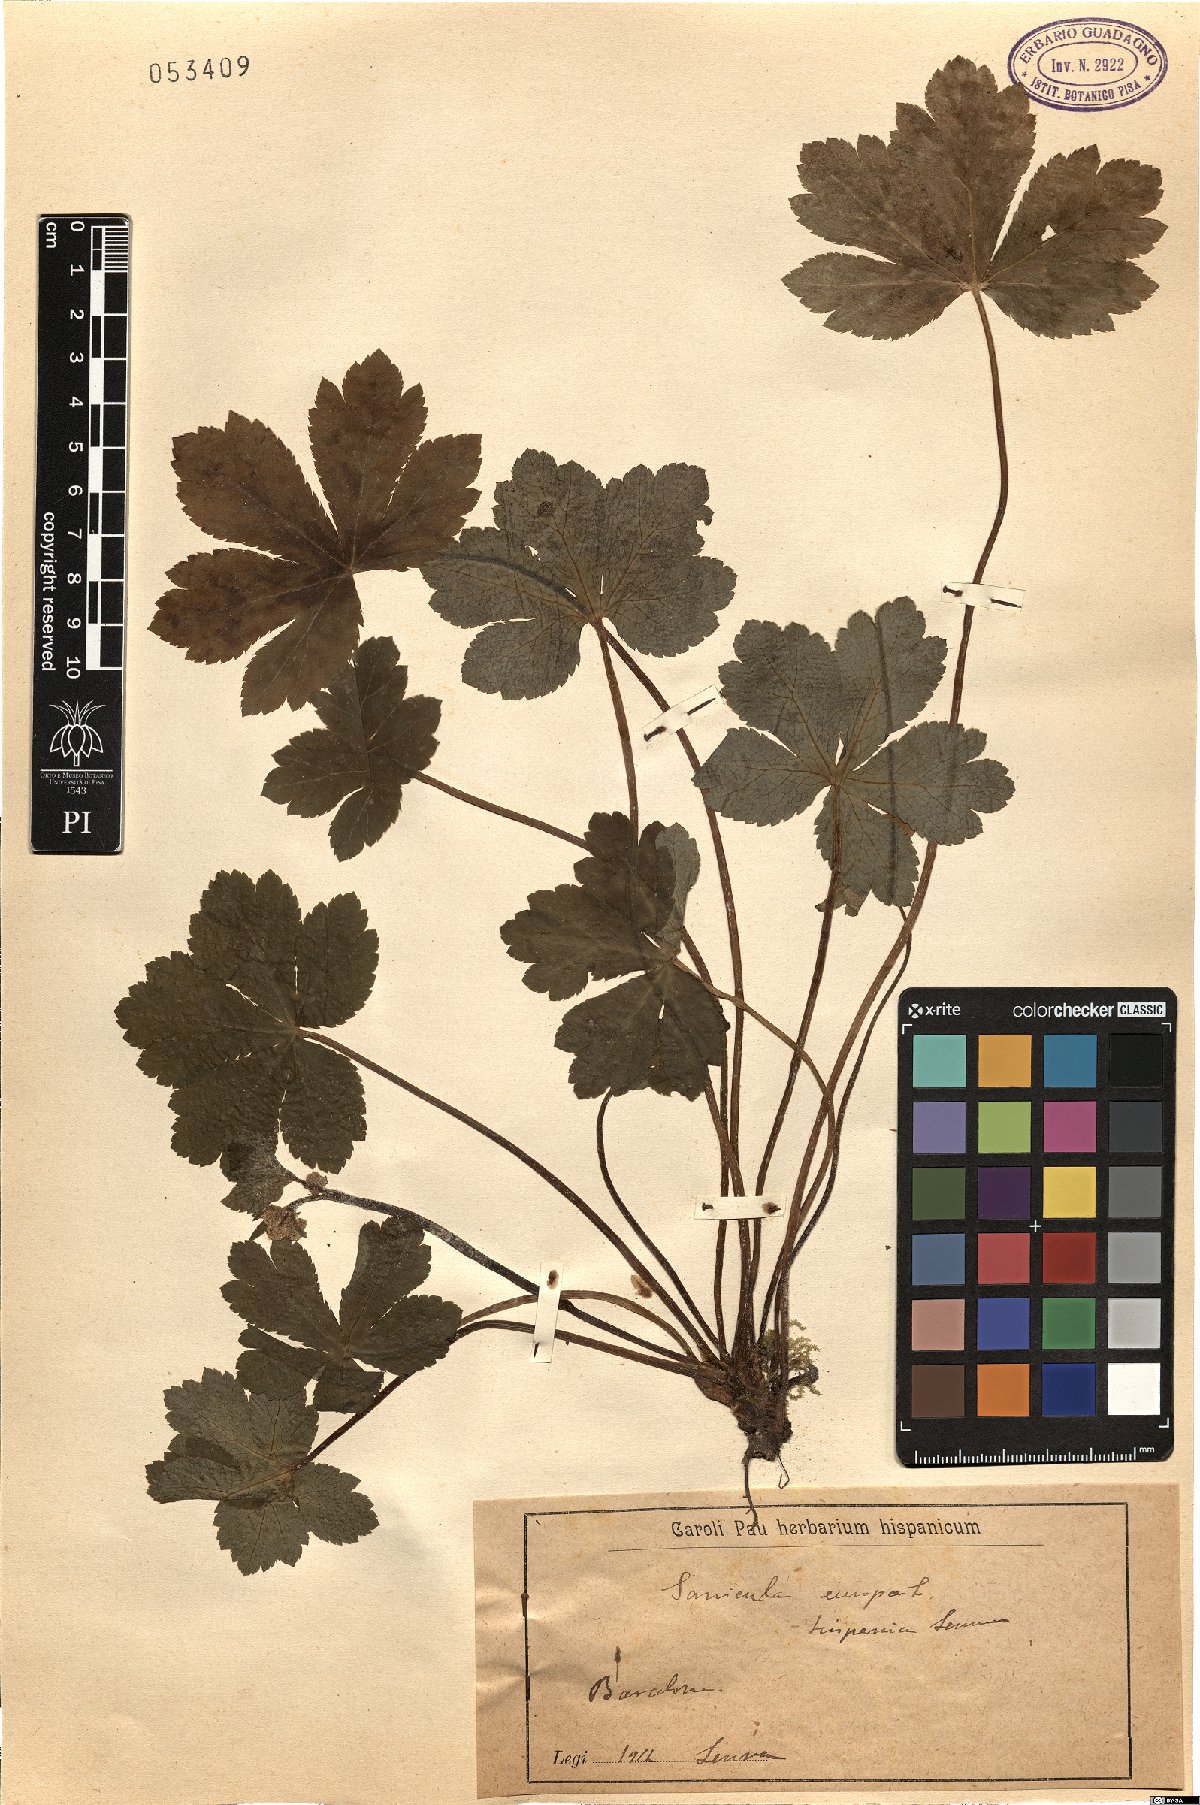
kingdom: Plantae
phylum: Tracheophyta
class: Magnoliopsida
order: Apiales
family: Apiaceae
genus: Sanicula
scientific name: Sanicula europaea
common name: Sanicle
